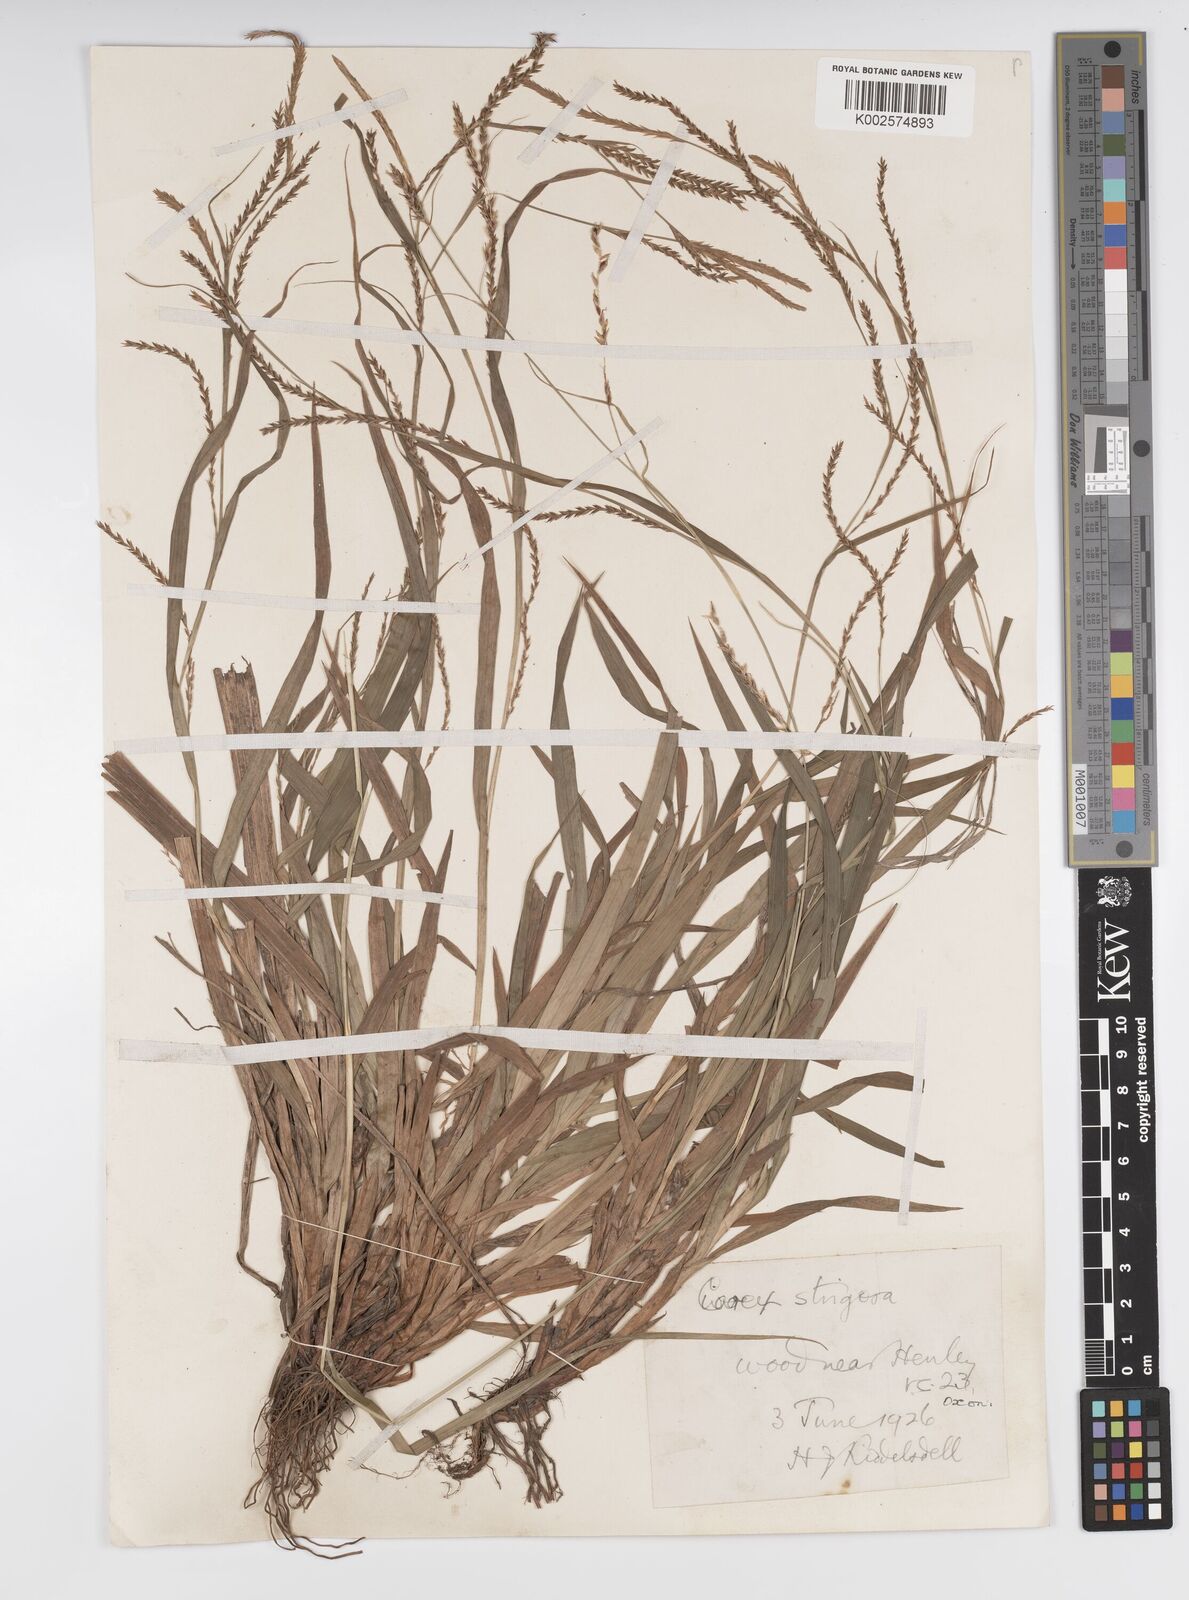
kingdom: Plantae
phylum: Tracheophyta
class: Liliopsida
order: Poales
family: Cyperaceae
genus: Carex
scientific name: Carex strigosa
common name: Thin-spiked wood-sedge
